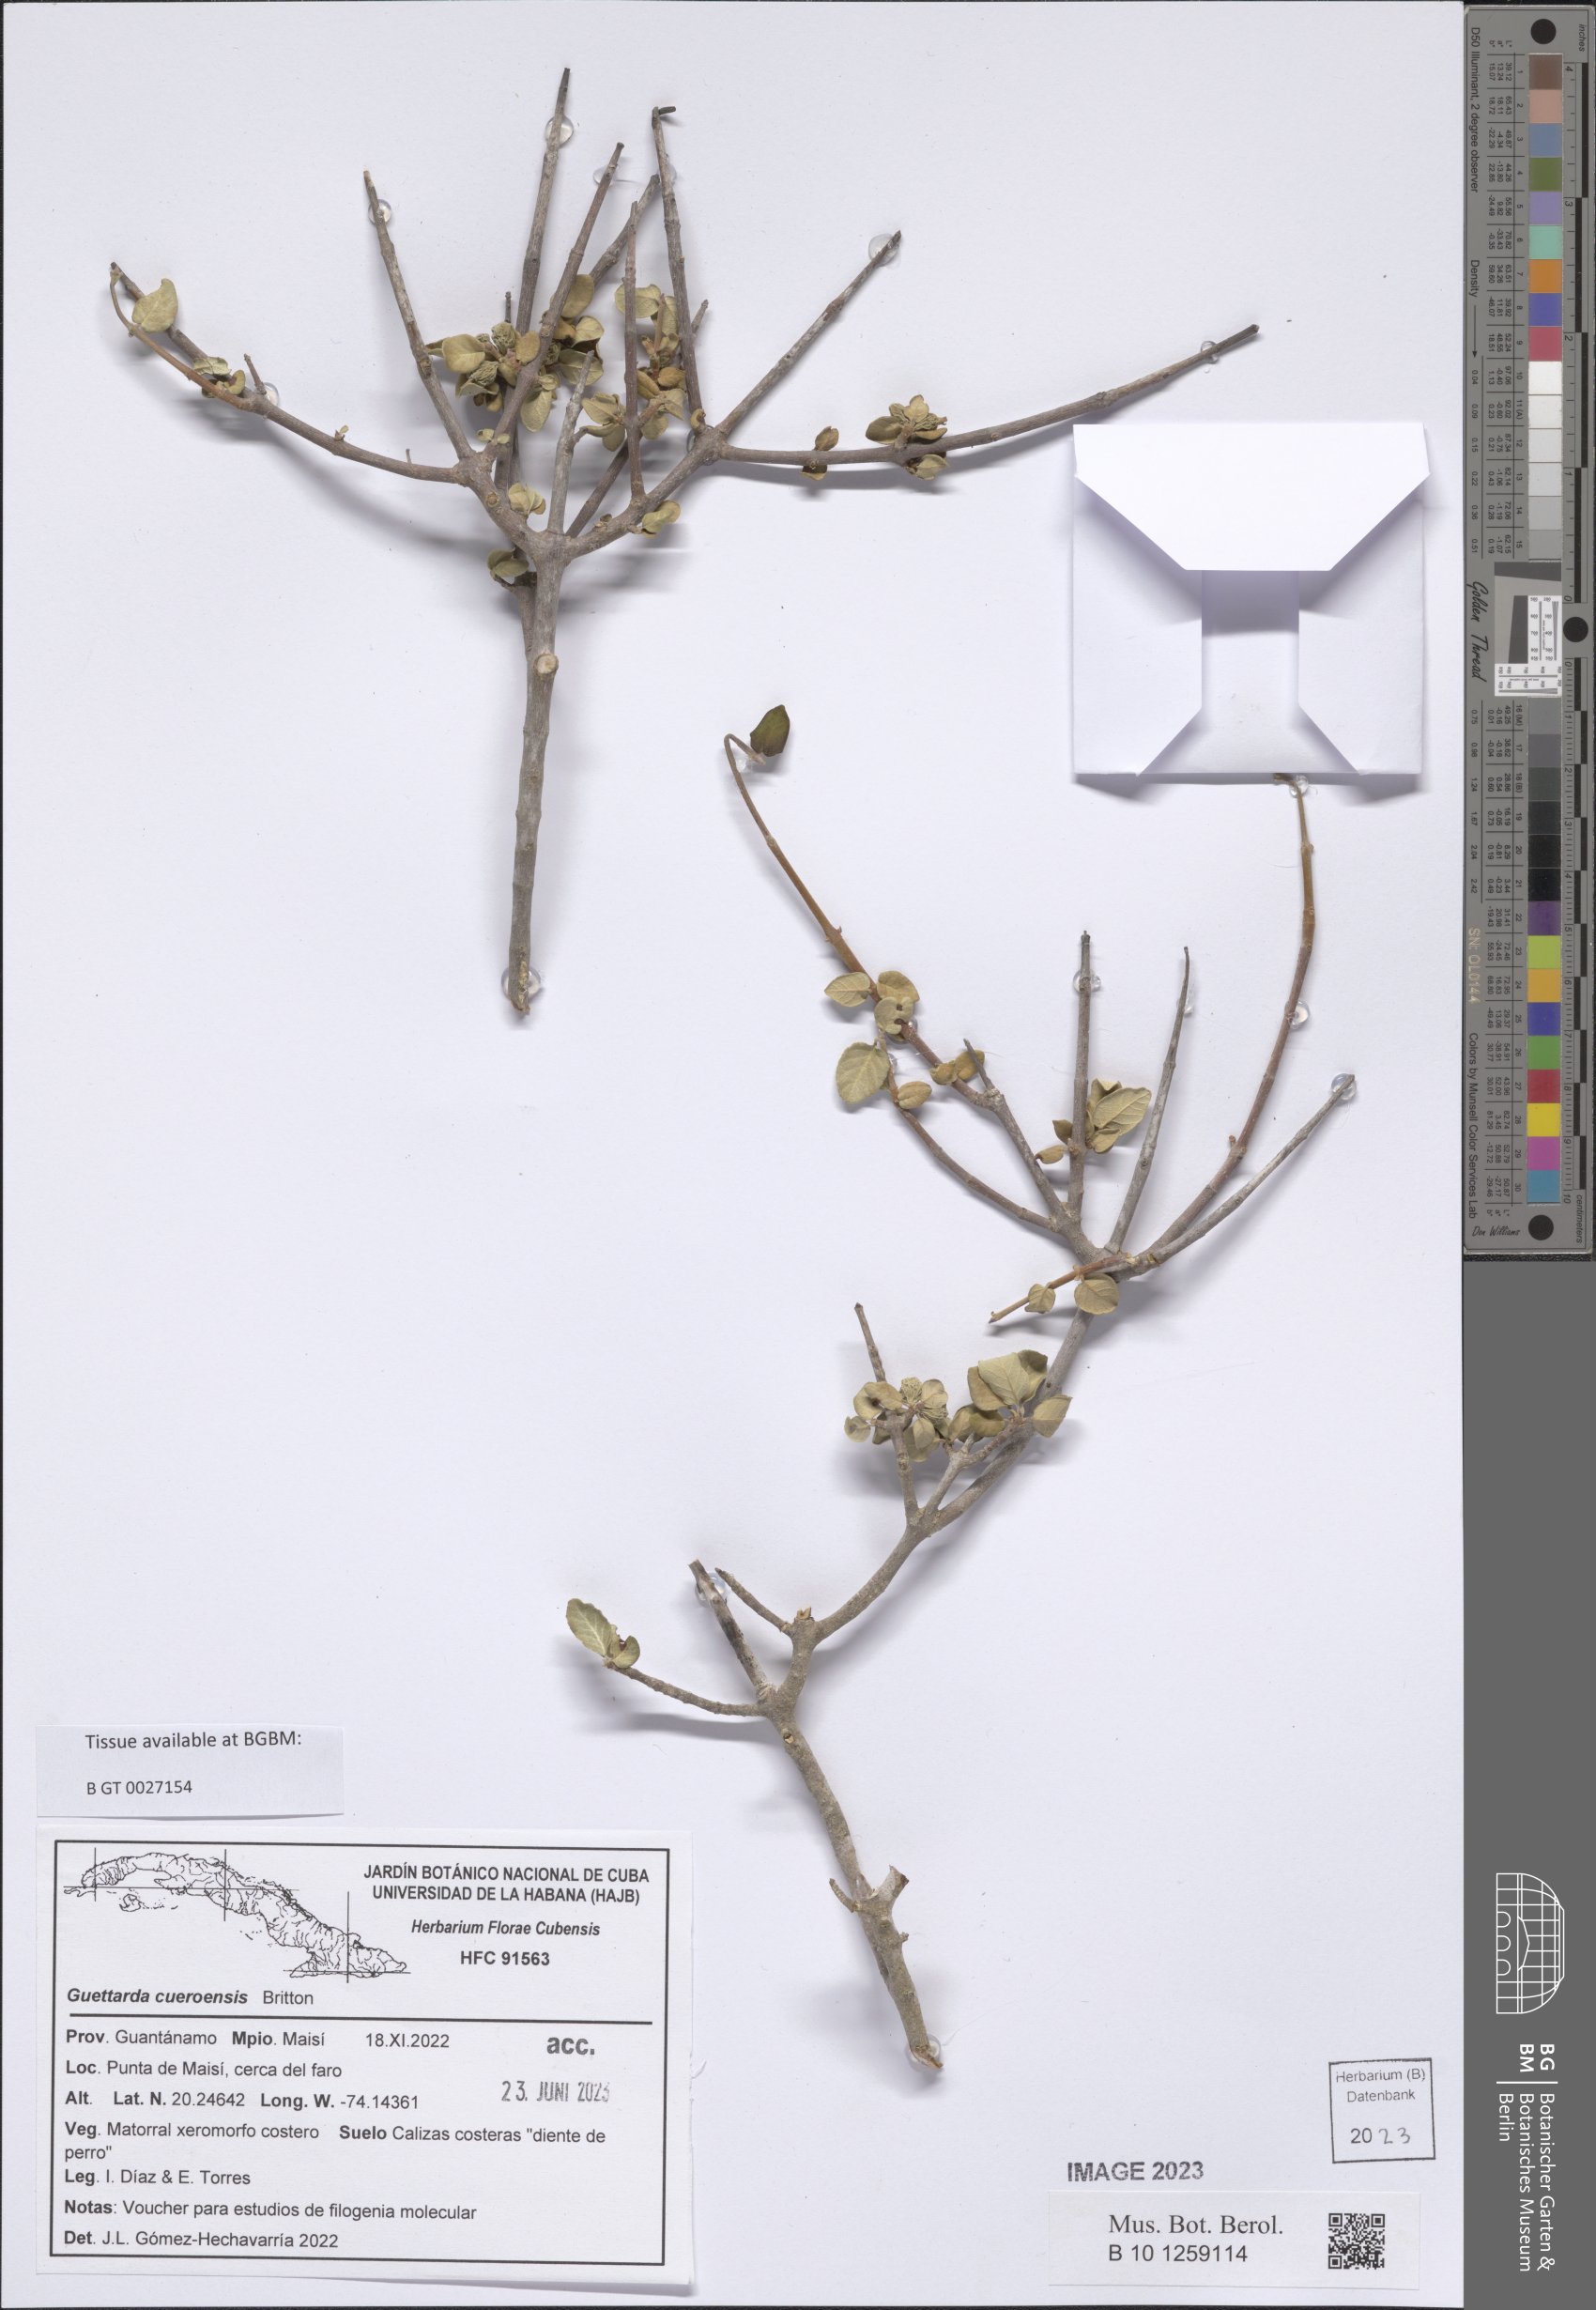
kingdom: Plantae
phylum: Tracheophyta
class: Magnoliopsida
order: Gentianales
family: Rubiaceae
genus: Guettarda
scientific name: Guettarda cueroensis
